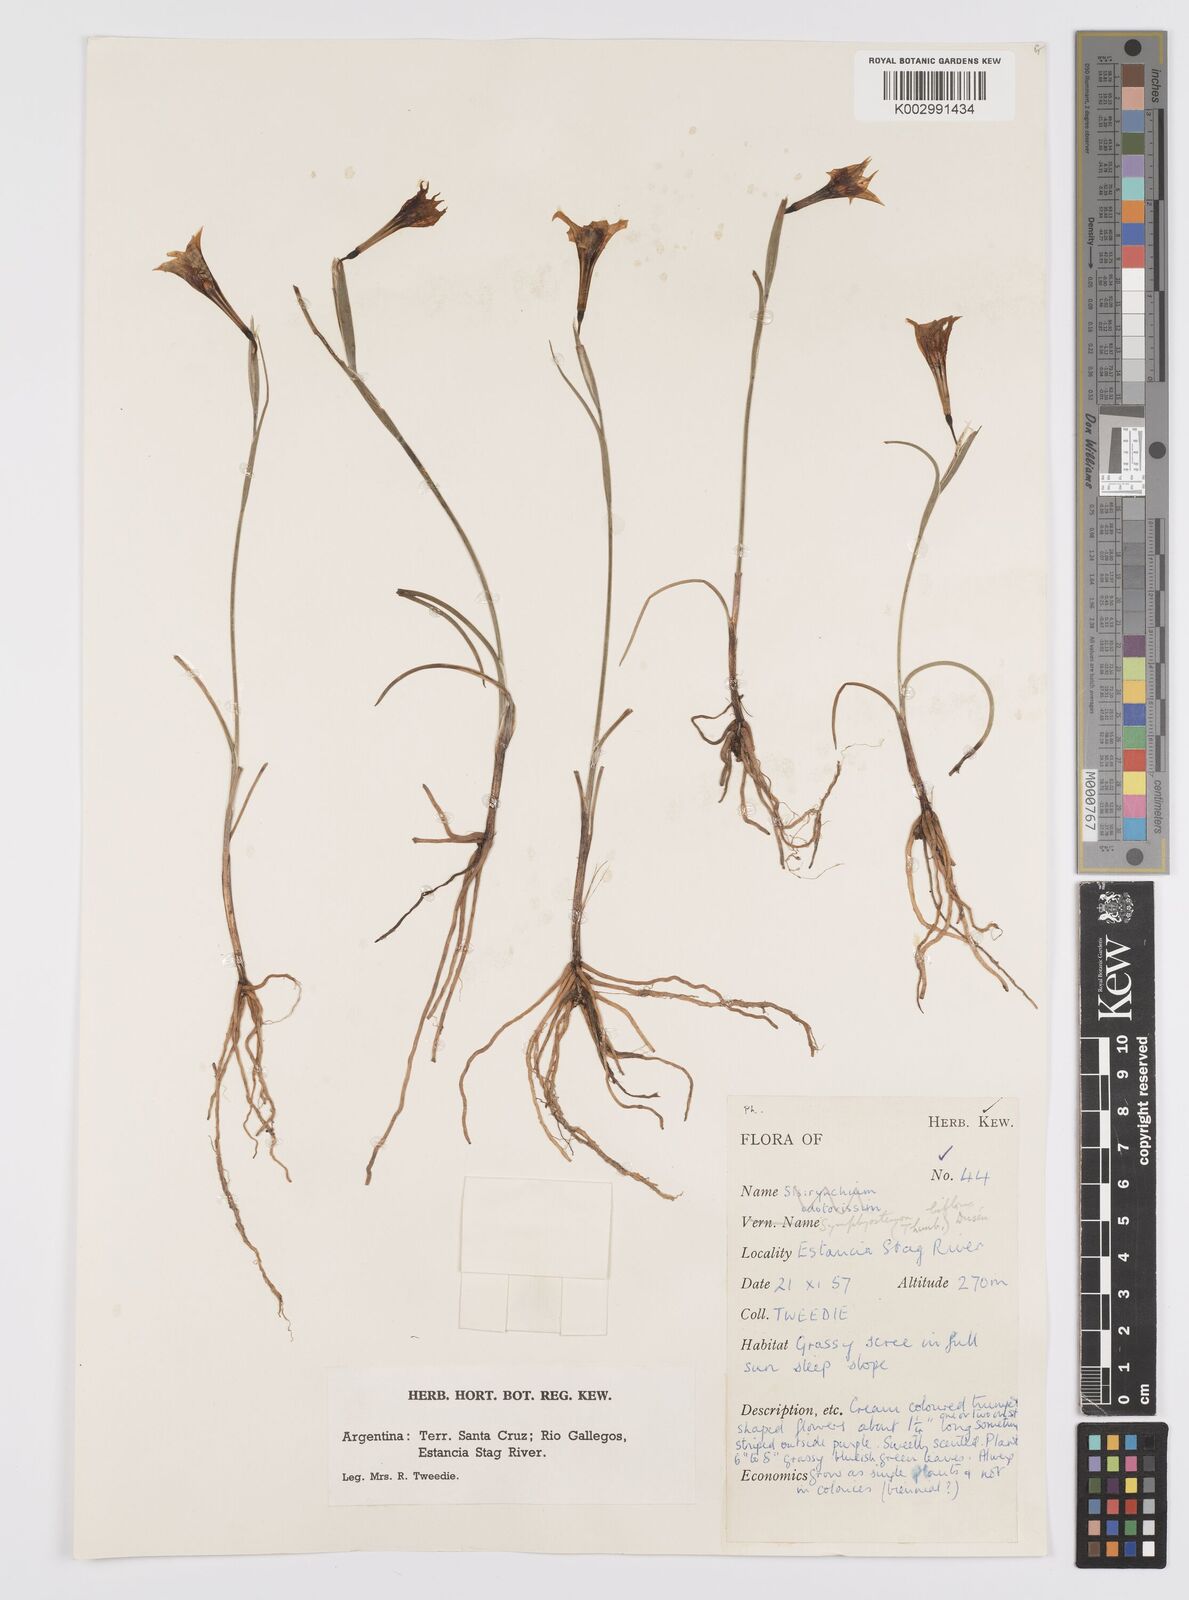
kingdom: Plantae
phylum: Tracheophyta
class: Liliopsida
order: Asparagales
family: Iridaceae
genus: Olsynium
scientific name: Olsynium biflorum
